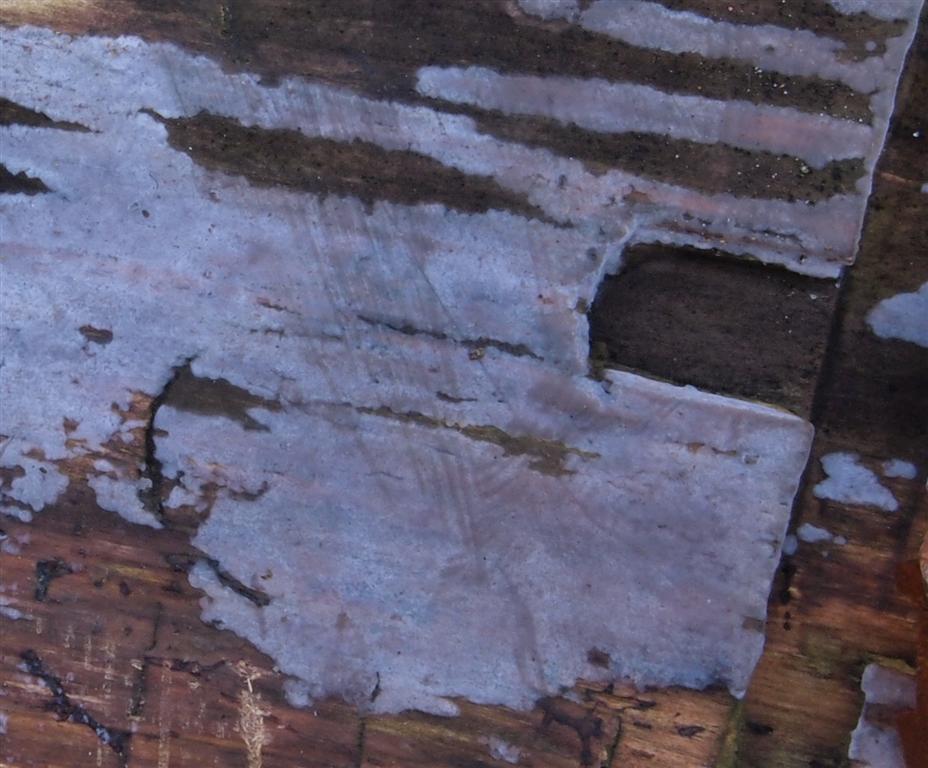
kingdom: Fungi
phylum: Basidiomycota
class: Agaricomycetes
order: Corticiales
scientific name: Corticiales
